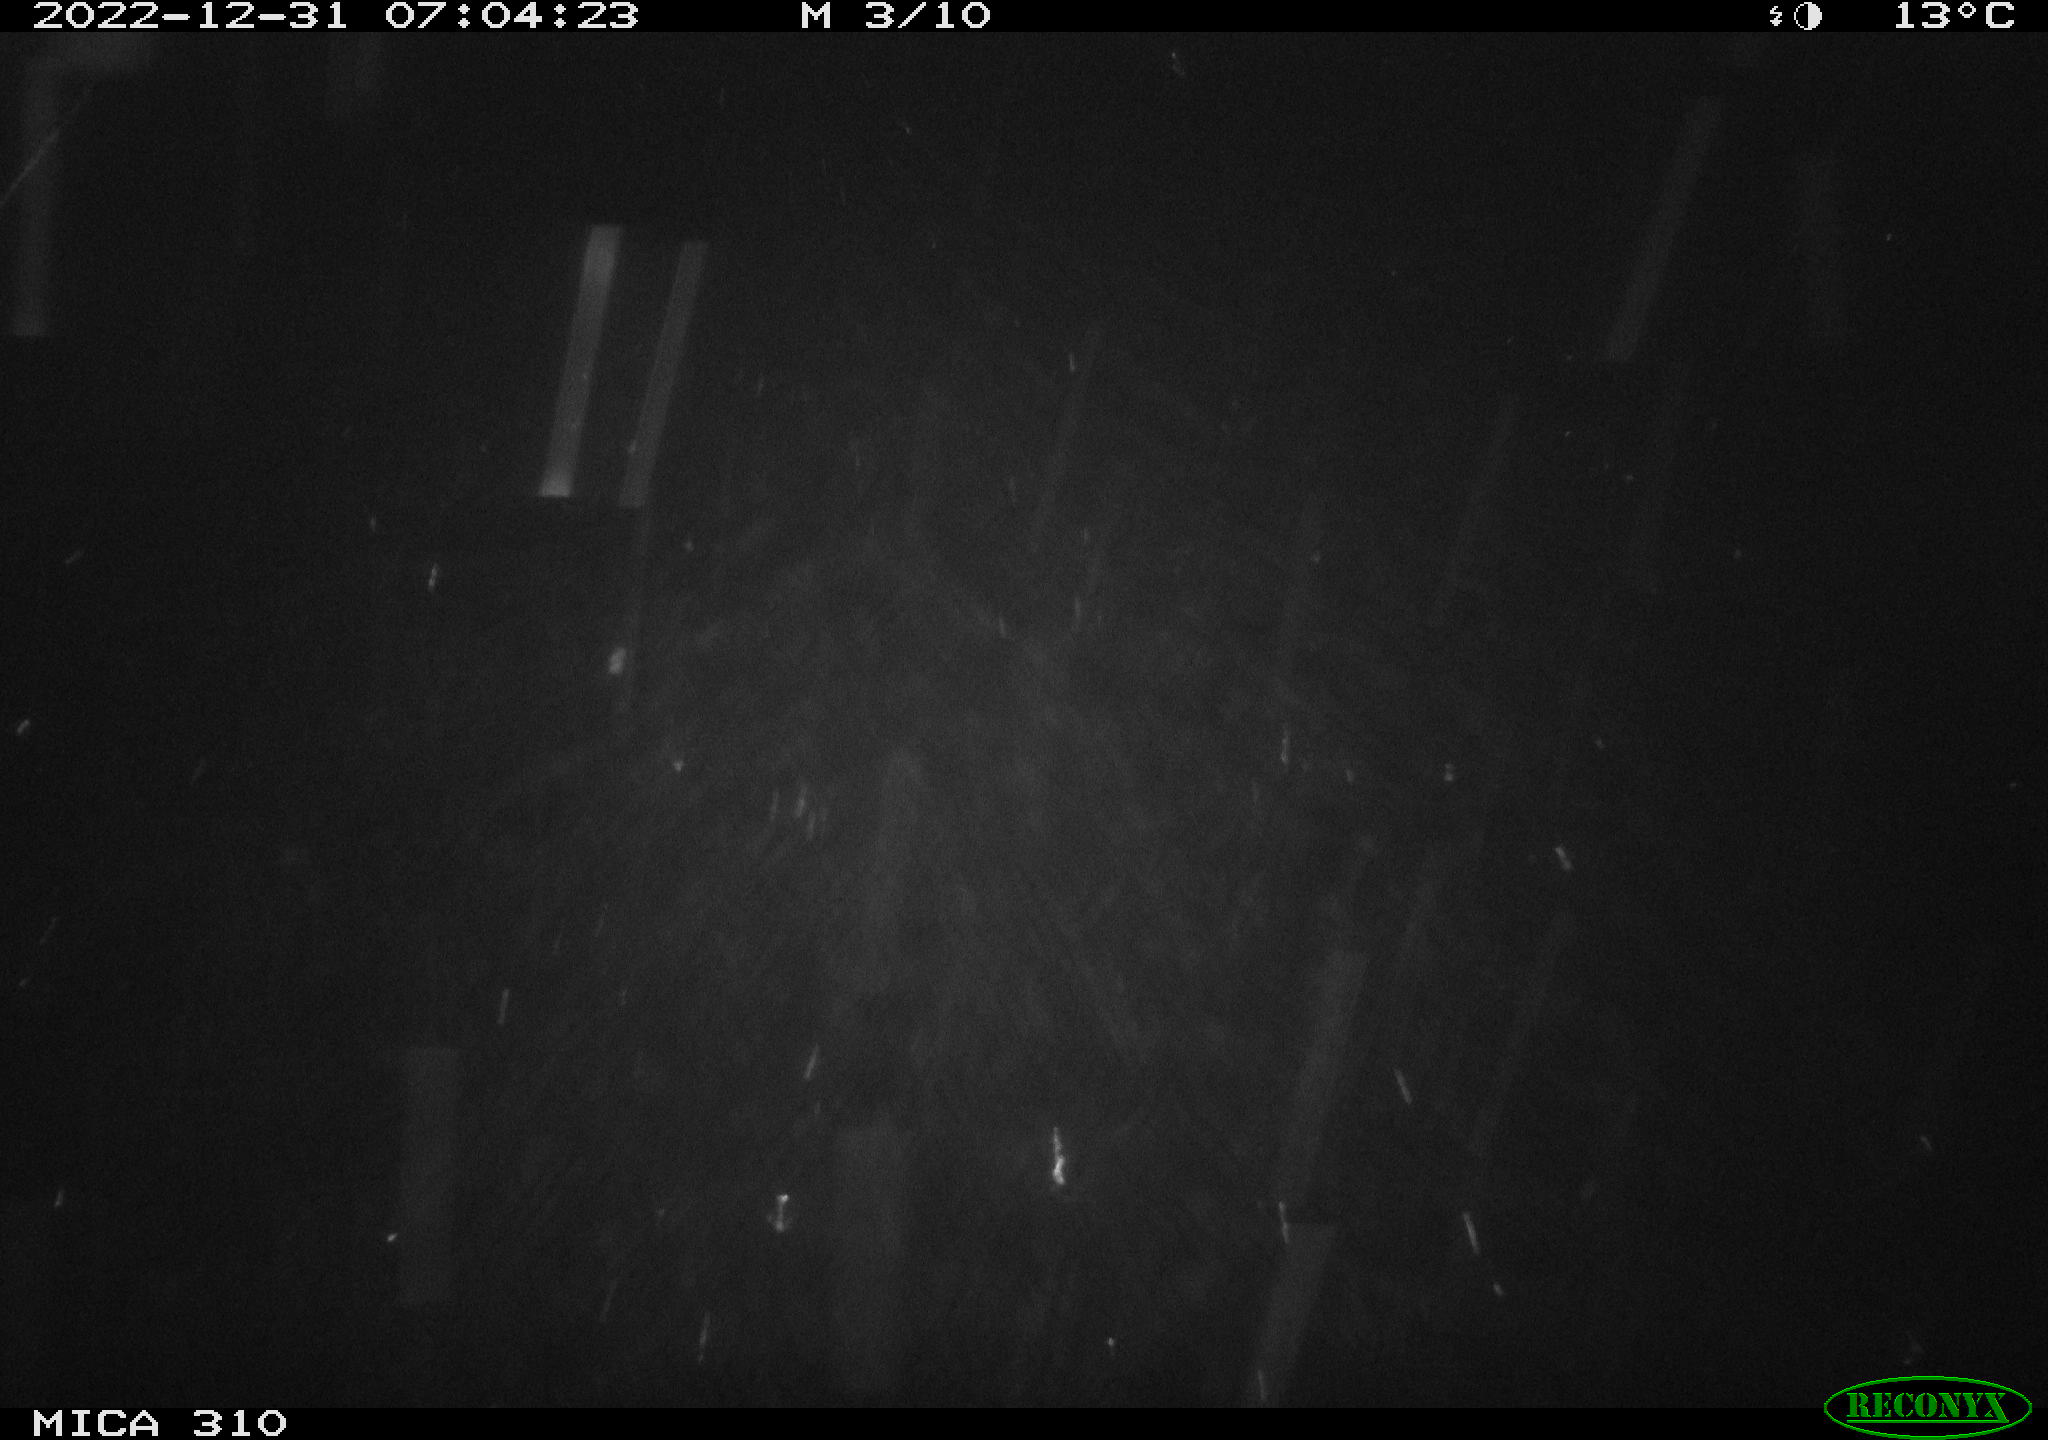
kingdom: Animalia
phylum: Chordata
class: Mammalia
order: Rodentia
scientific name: Rodentia
